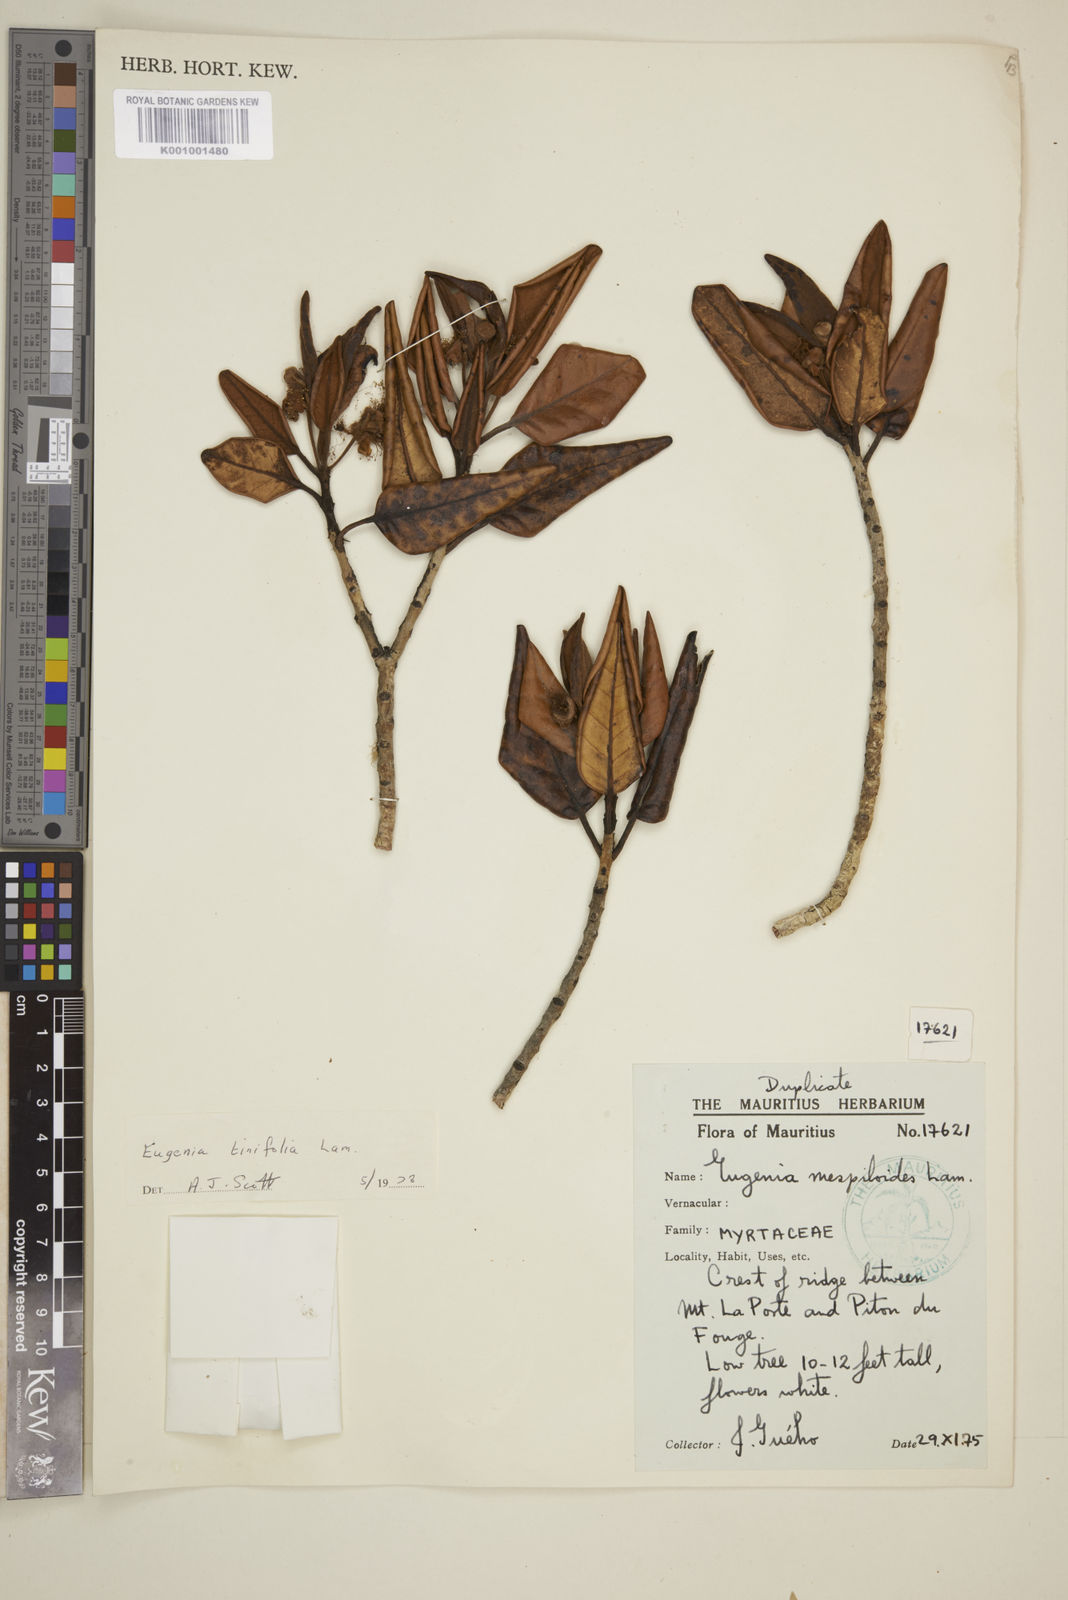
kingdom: Plantae
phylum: Tracheophyta
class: Magnoliopsida
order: Myrtales
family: Myrtaceae
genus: Eugenia
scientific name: Eugenia tinifolia
